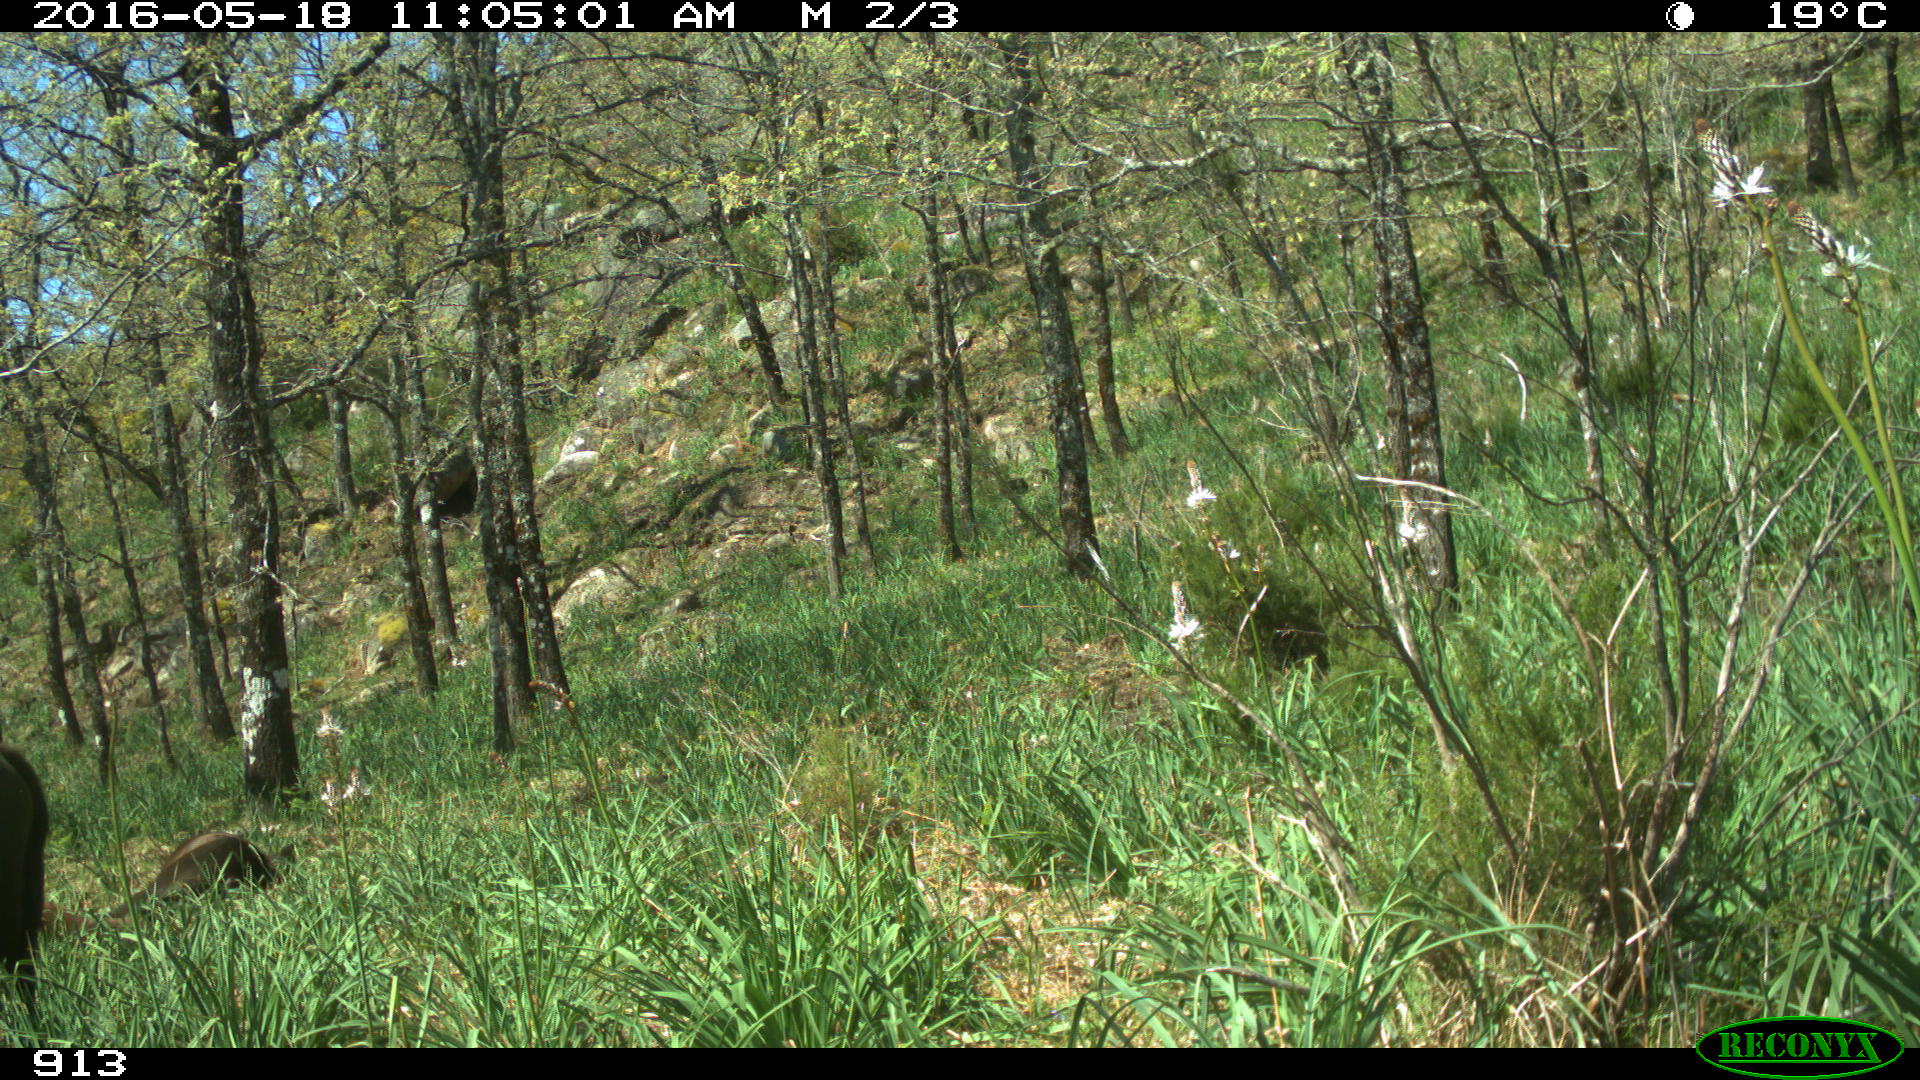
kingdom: Animalia
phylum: Chordata
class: Mammalia
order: Perissodactyla
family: Equidae
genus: Equus
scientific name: Equus caballus
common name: Horse
